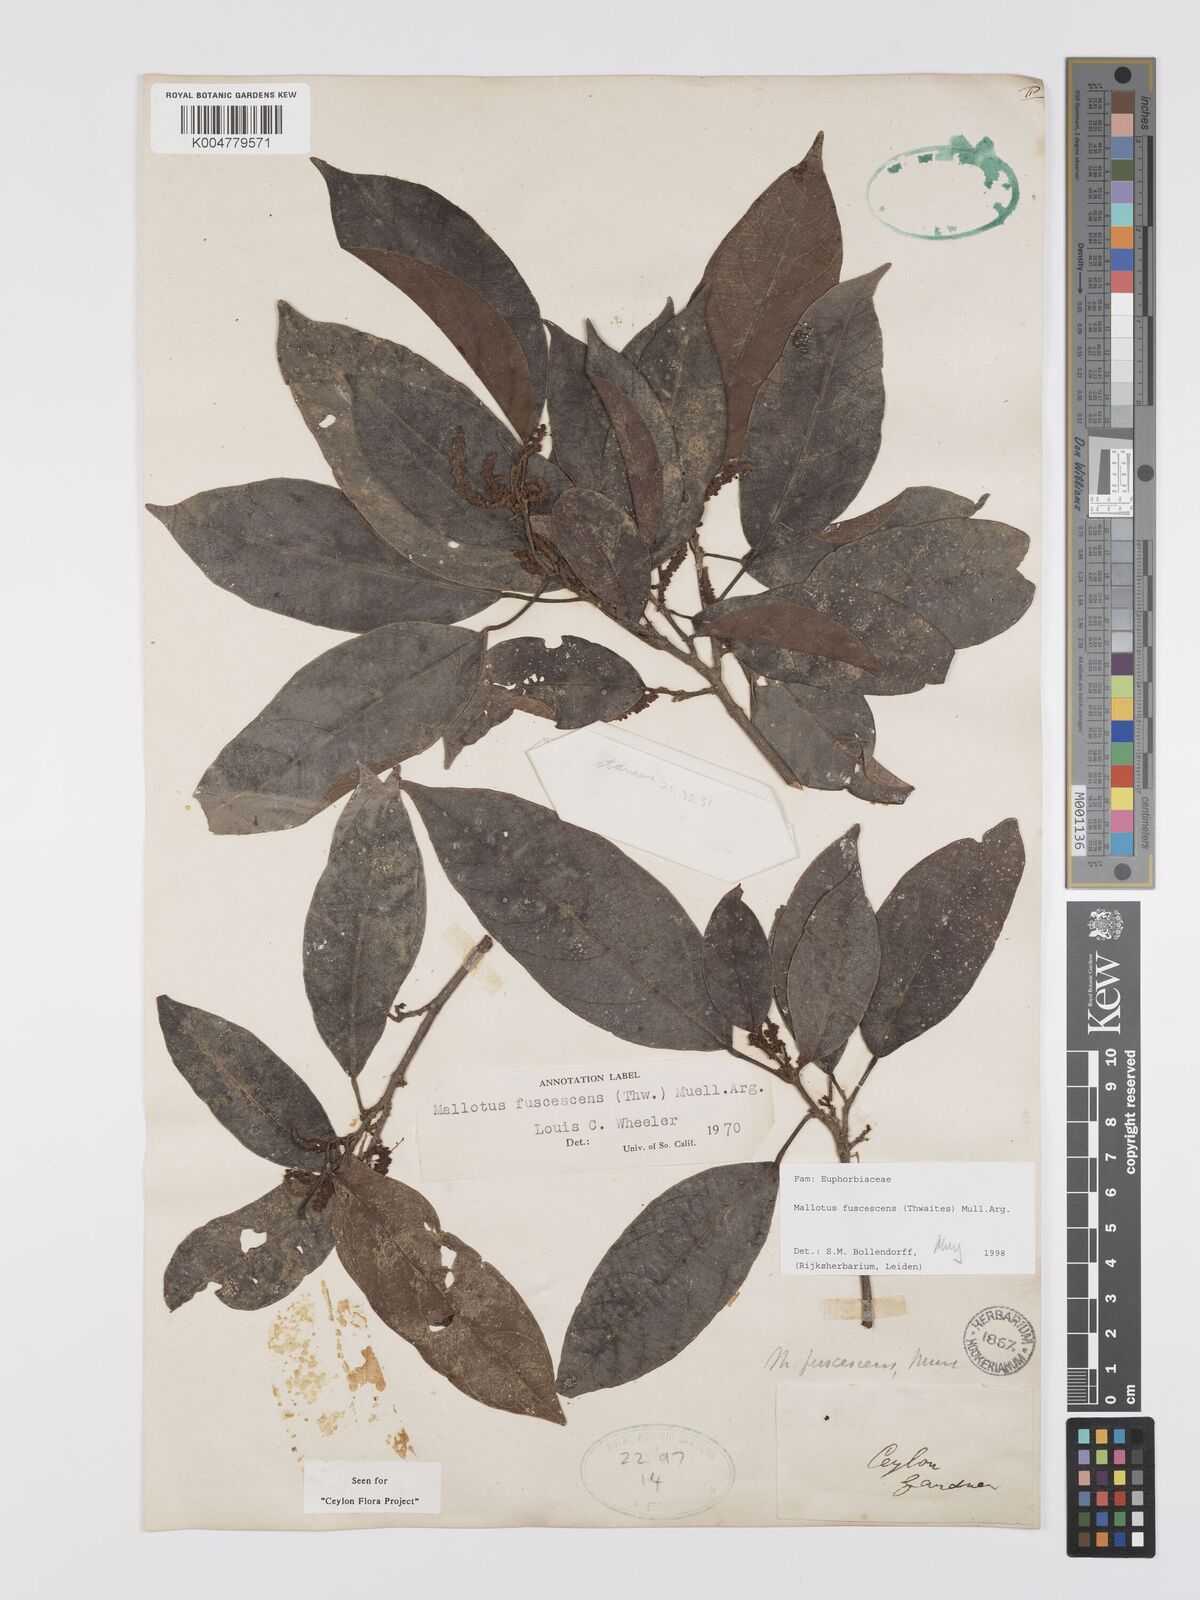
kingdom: Plantae
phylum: Tracheophyta
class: Magnoliopsida
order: Malpighiales
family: Euphorbiaceae
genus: Mallotus
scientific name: Mallotus fuscescens
